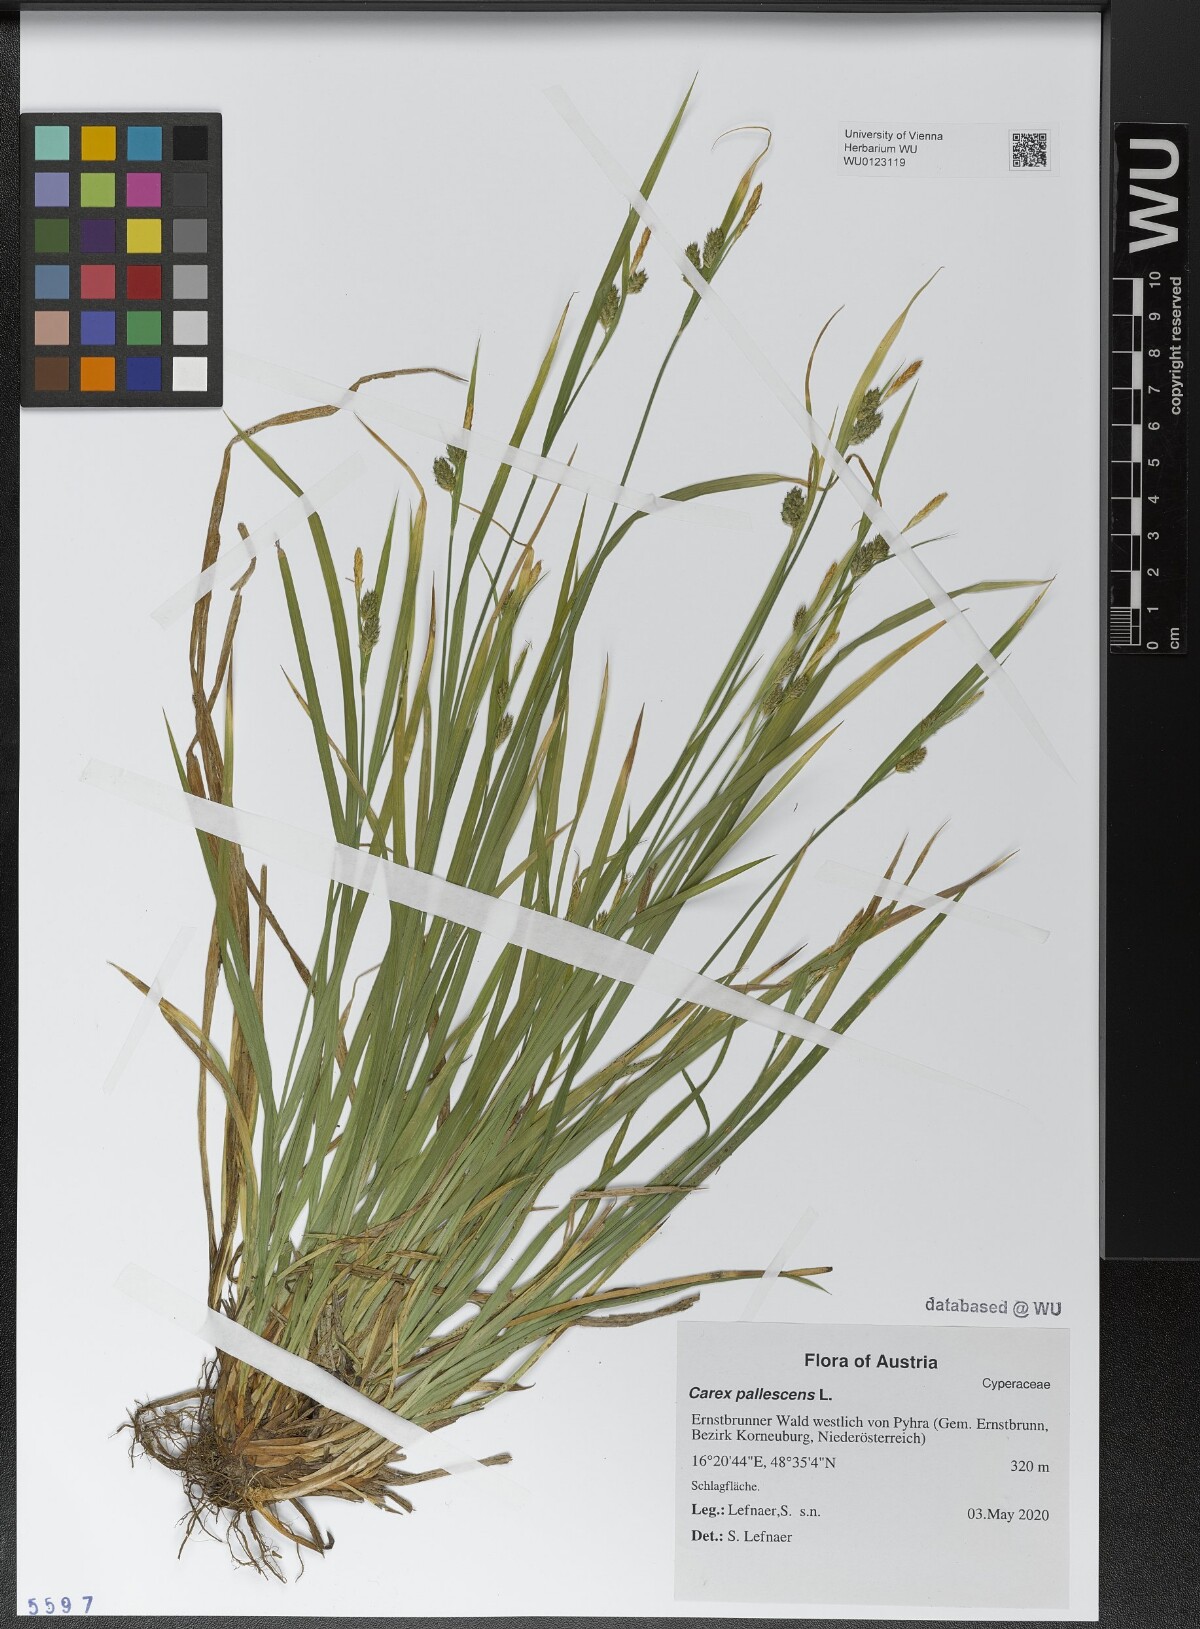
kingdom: Plantae
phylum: Tracheophyta
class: Liliopsida
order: Poales
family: Cyperaceae
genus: Carex
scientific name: Carex pallescens
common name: Pale sedge
